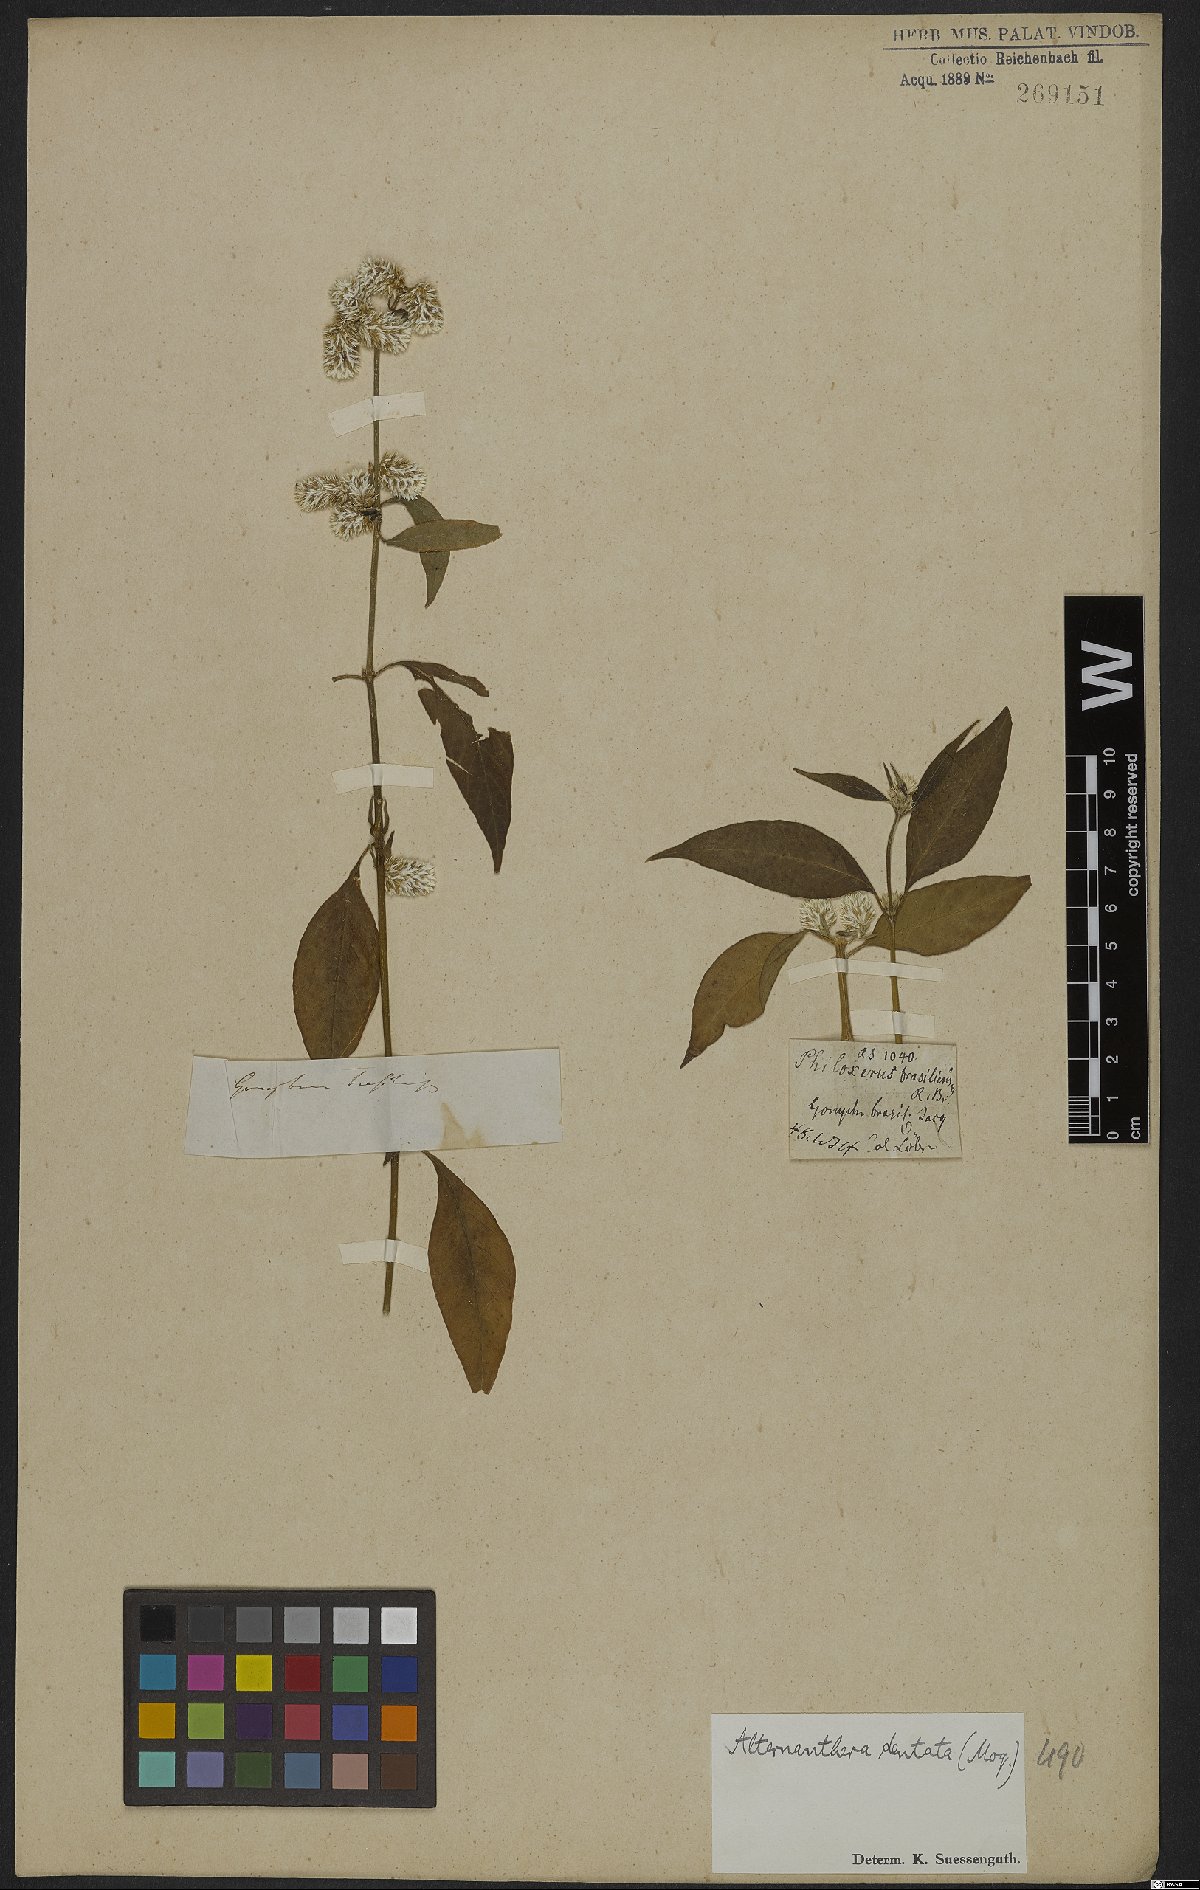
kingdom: Plantae
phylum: Tracheophyta
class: Magnoliopsida
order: Caryophyllales
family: Amaranthaceae
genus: Alternanthera
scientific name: Alternanthera ramosissima
